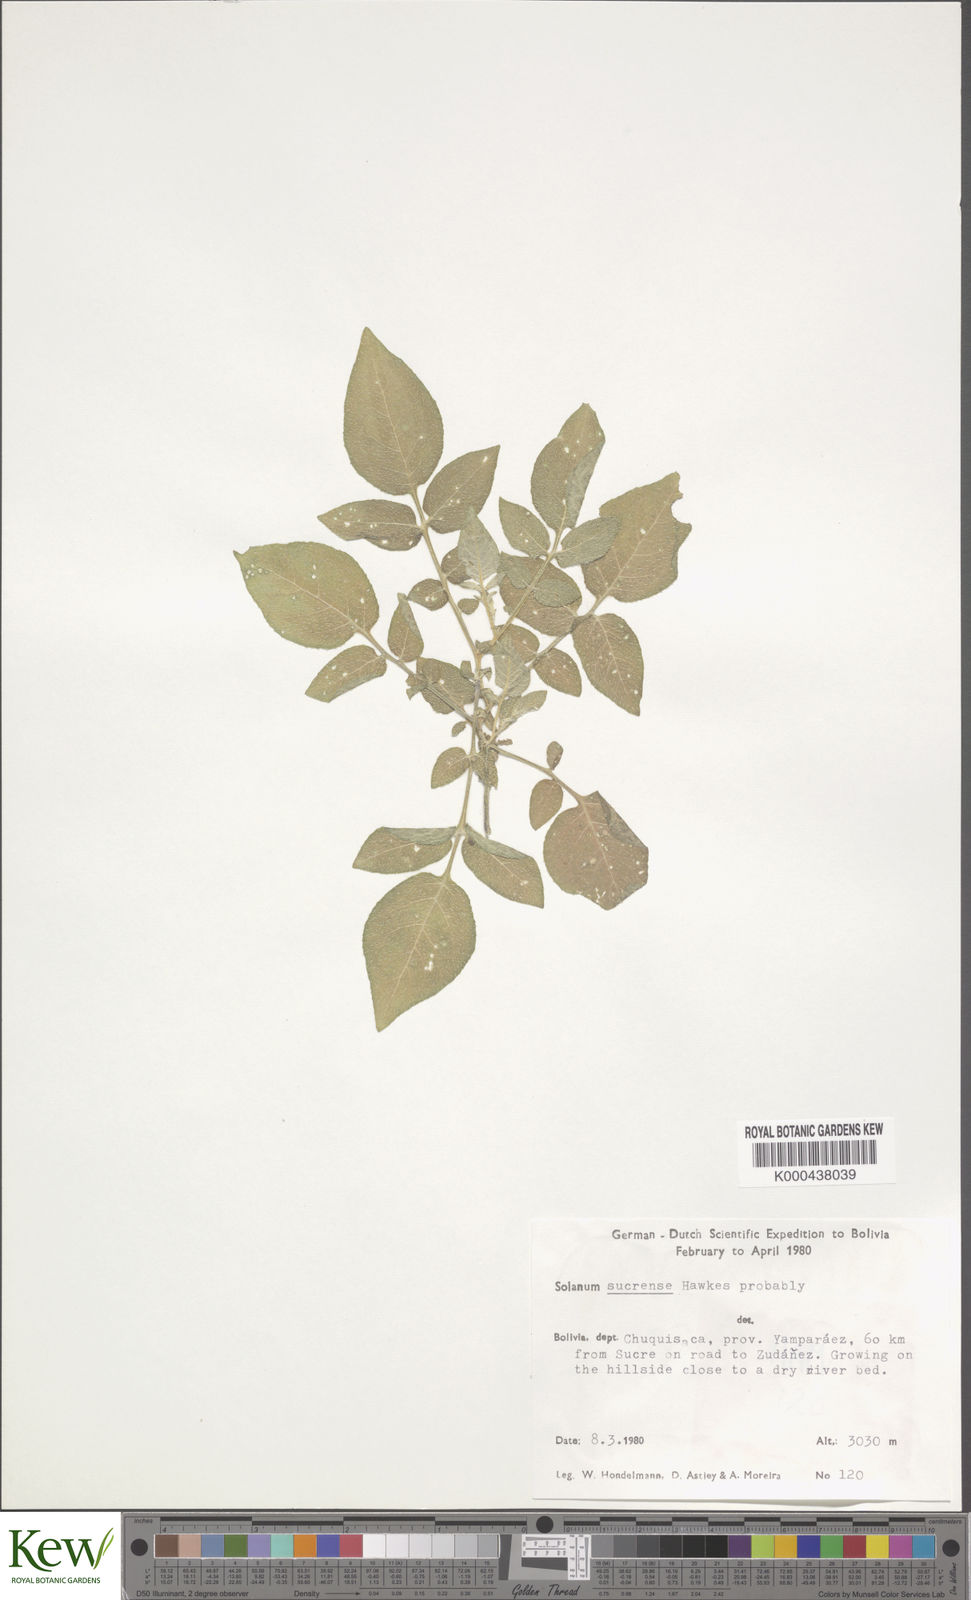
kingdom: Plantae
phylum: Tracheophyta
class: Magnoliopsida
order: Solanales
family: Solanaceae
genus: Solanum
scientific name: Solanum brevicaule
